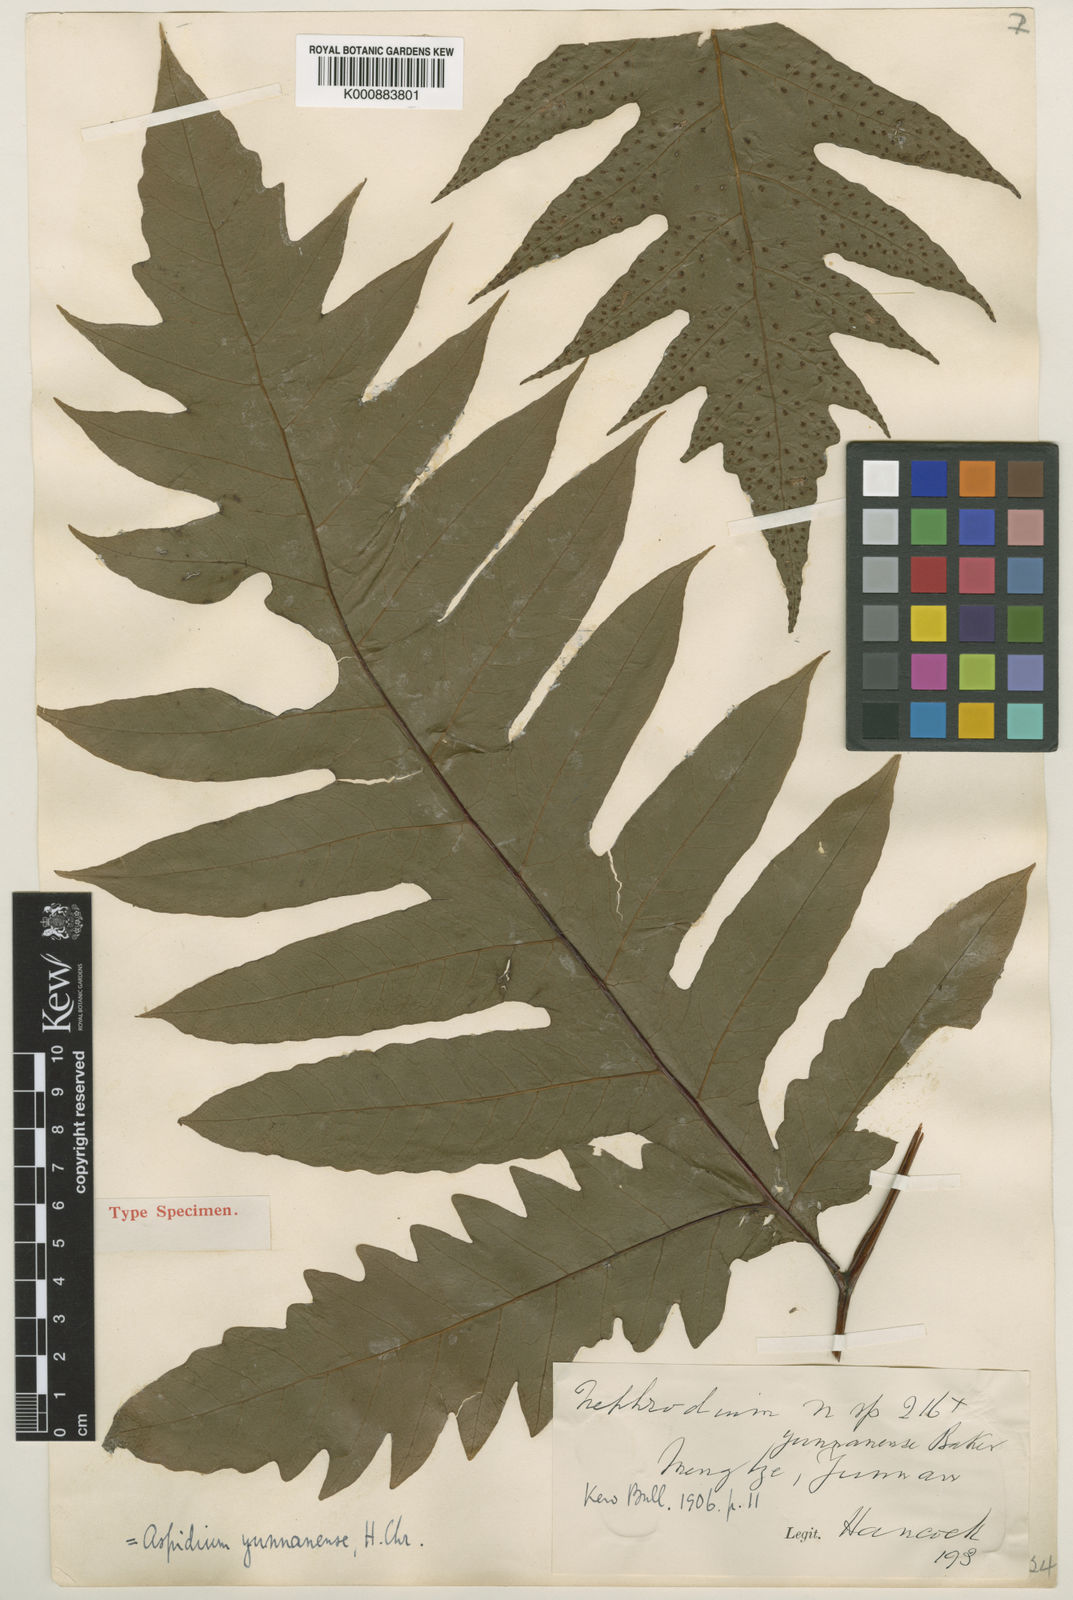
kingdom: Plantae
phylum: Tracheophyta
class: Polypodiopsida
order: Polypodiales
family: Tectariaceae
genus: Tectaria
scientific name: Tectaria griffithii
